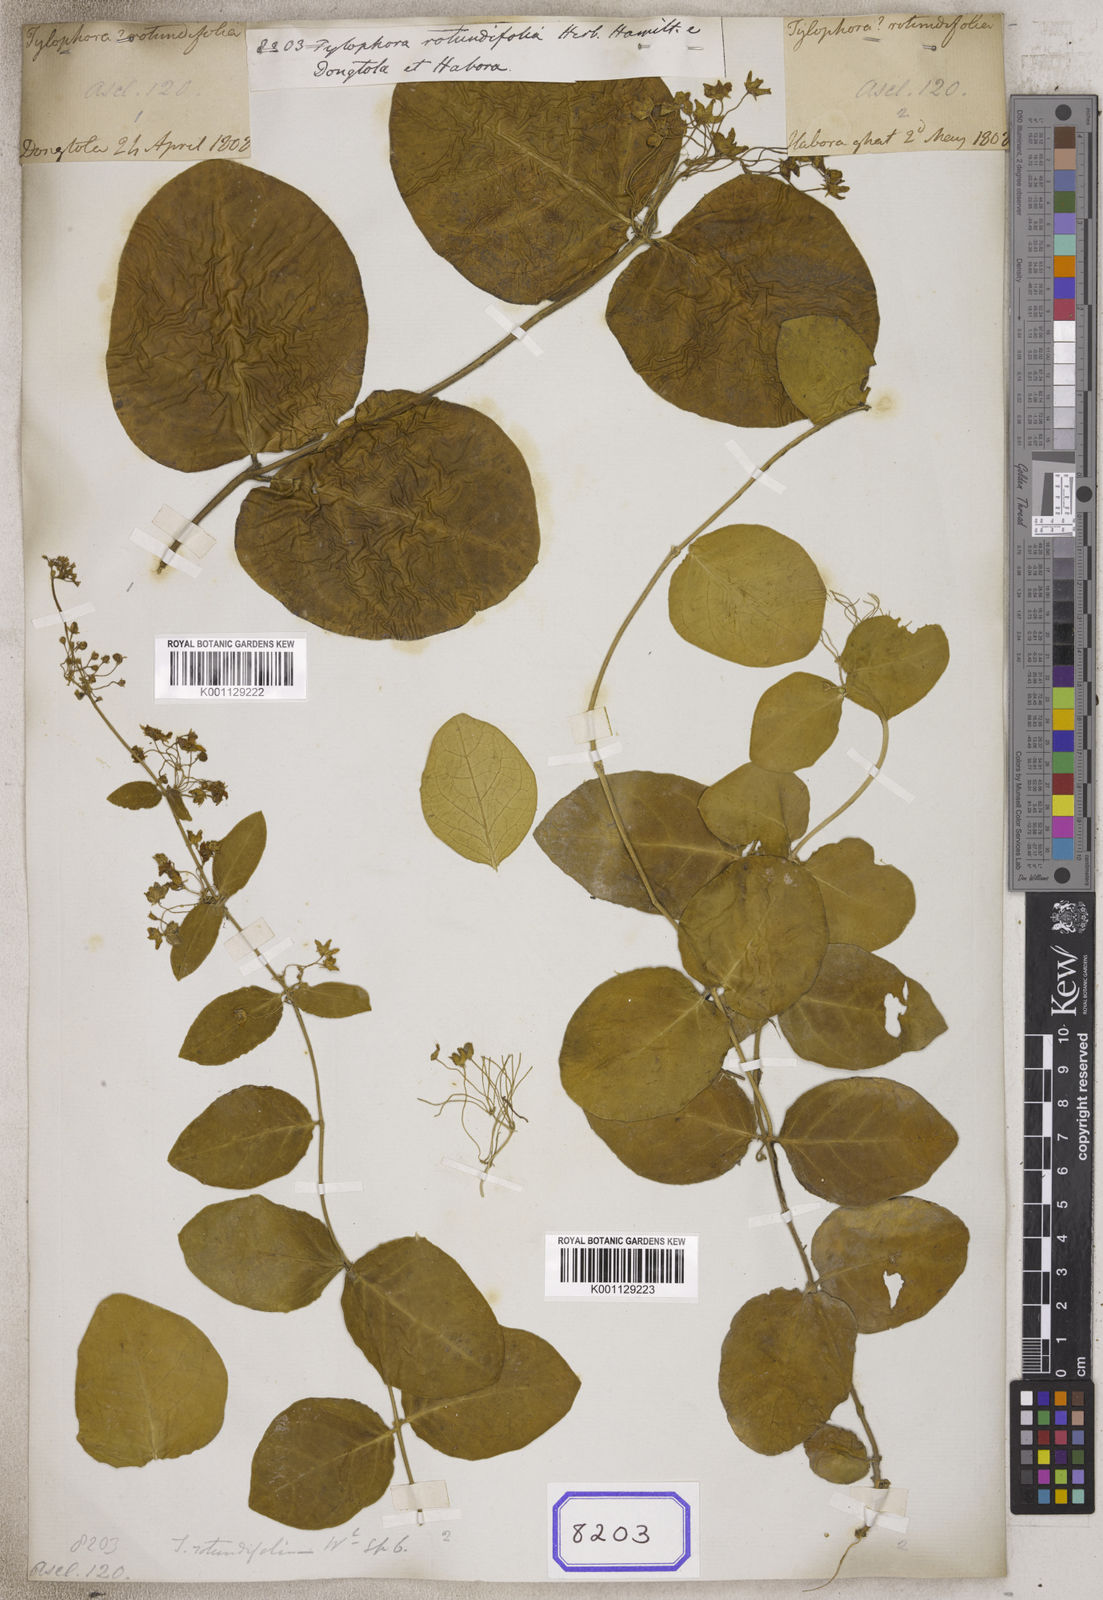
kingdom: Plantae
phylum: Tracheophyta
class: Magnoliopsida
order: Gentianales
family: Apocynaceae
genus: Vincetoxicum
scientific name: Vincetoxicum rotundifolium
